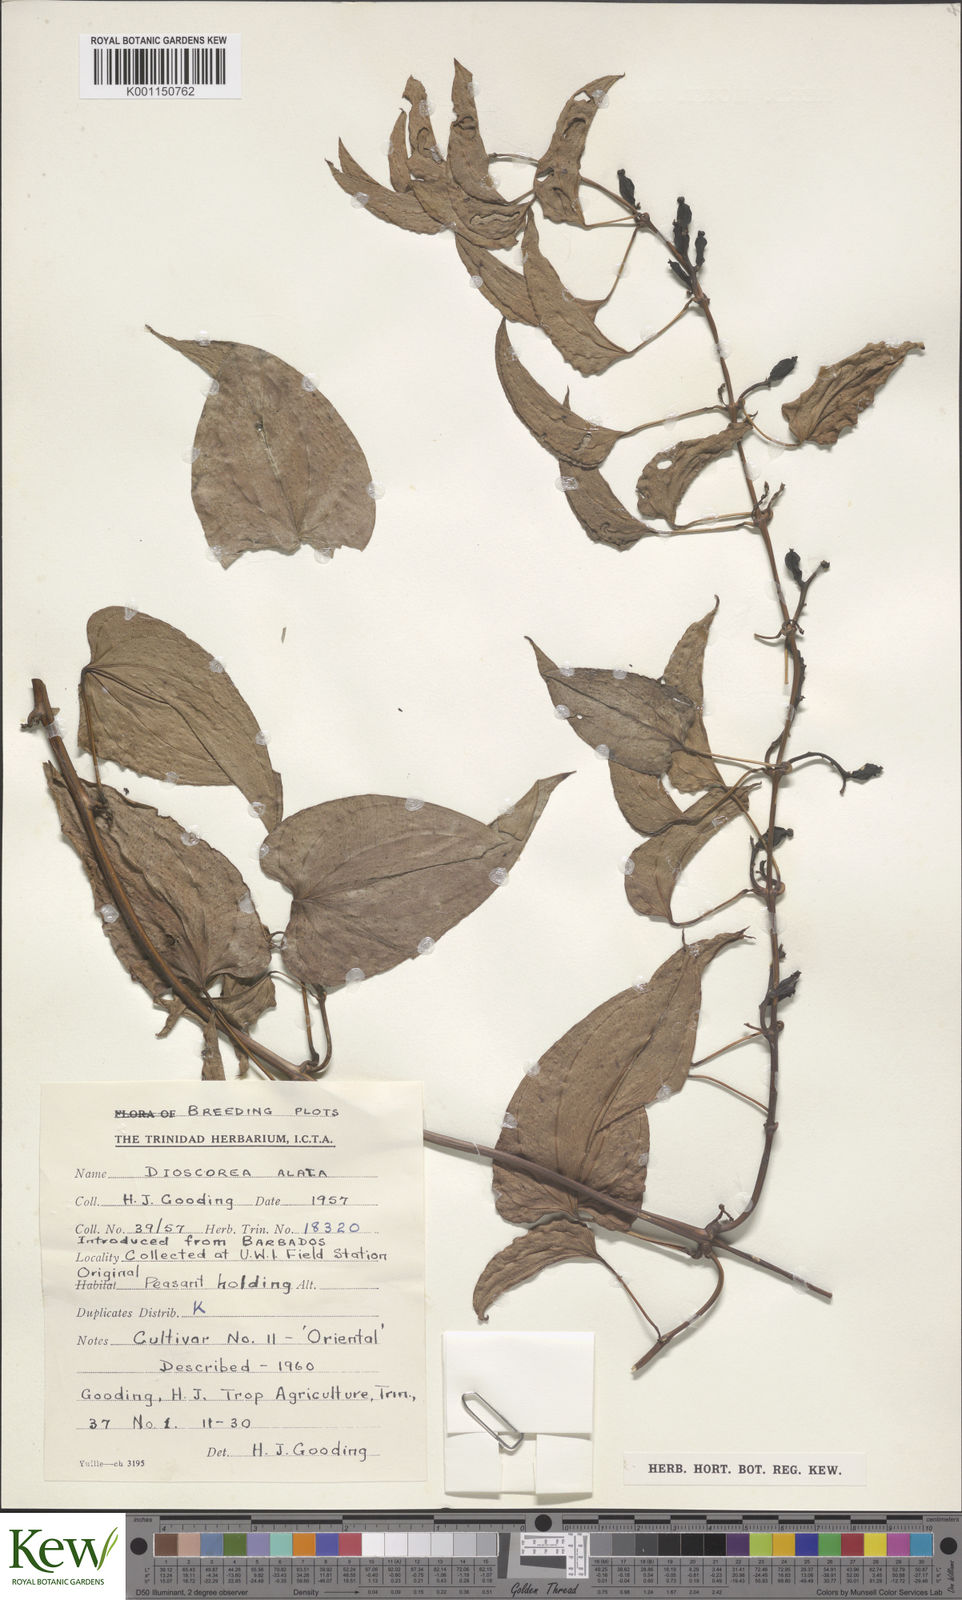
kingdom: Plantae
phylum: Tracheophyta
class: Liliopsida
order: Dioscoreales
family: Dioscoreaceae
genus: Dioscorea
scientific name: Dioscorea alata
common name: Water yam
